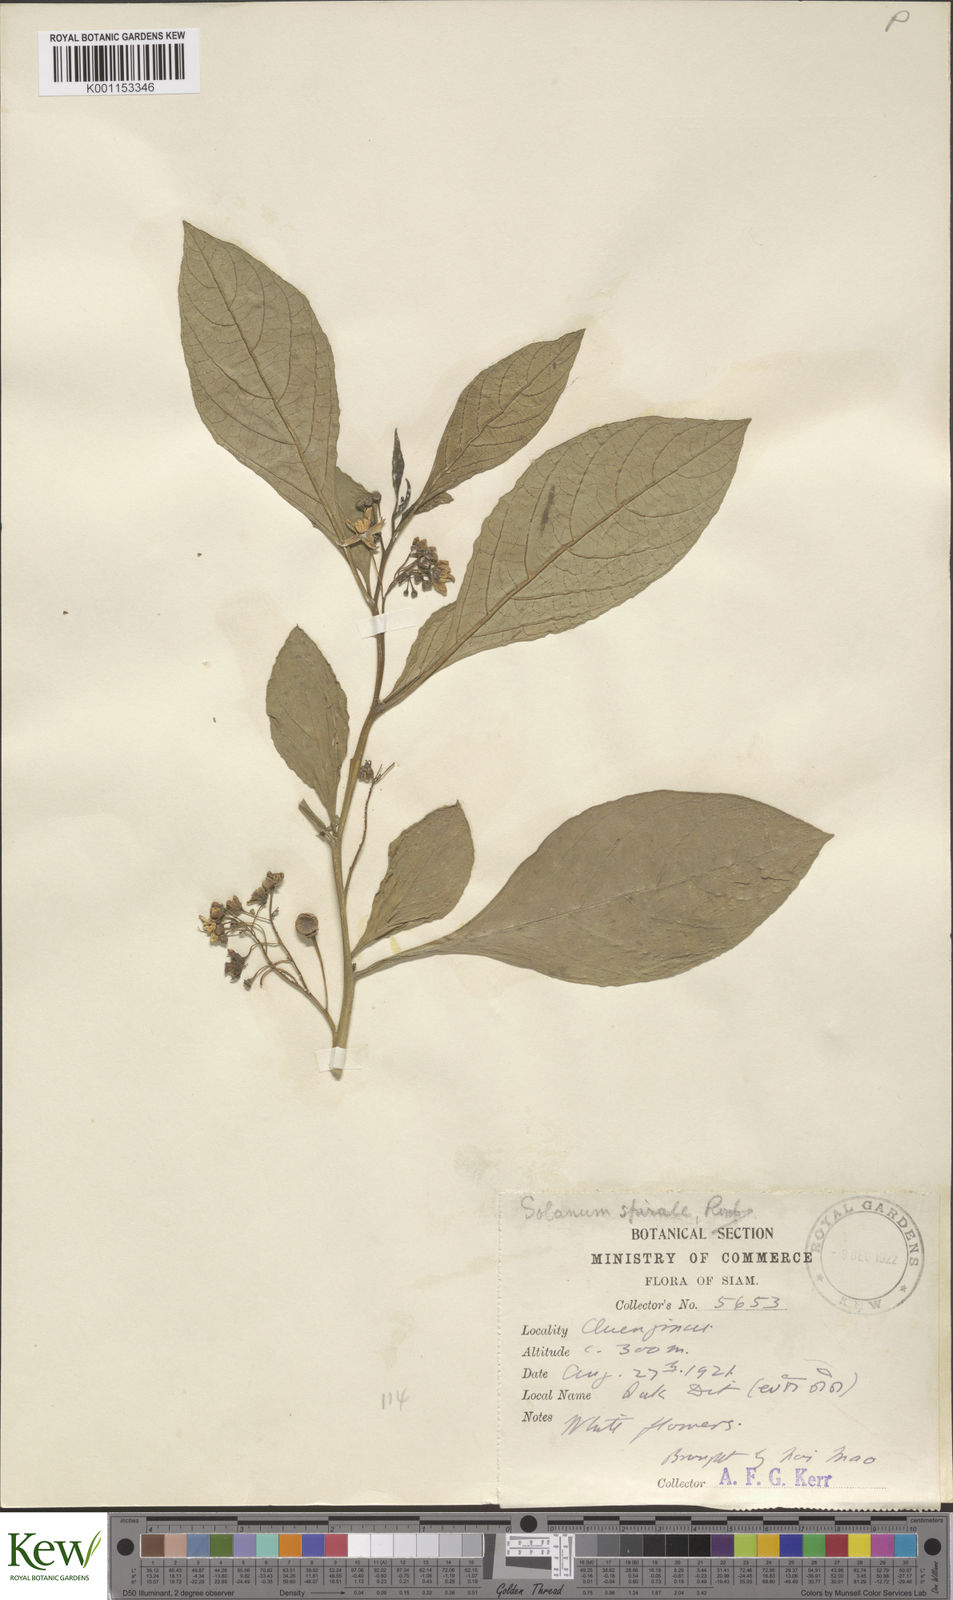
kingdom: Plantae
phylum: Tracheophyta
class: Magnoliopsida
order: Solanales
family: Solanaceae
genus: Solanum
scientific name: Solanum spirale
